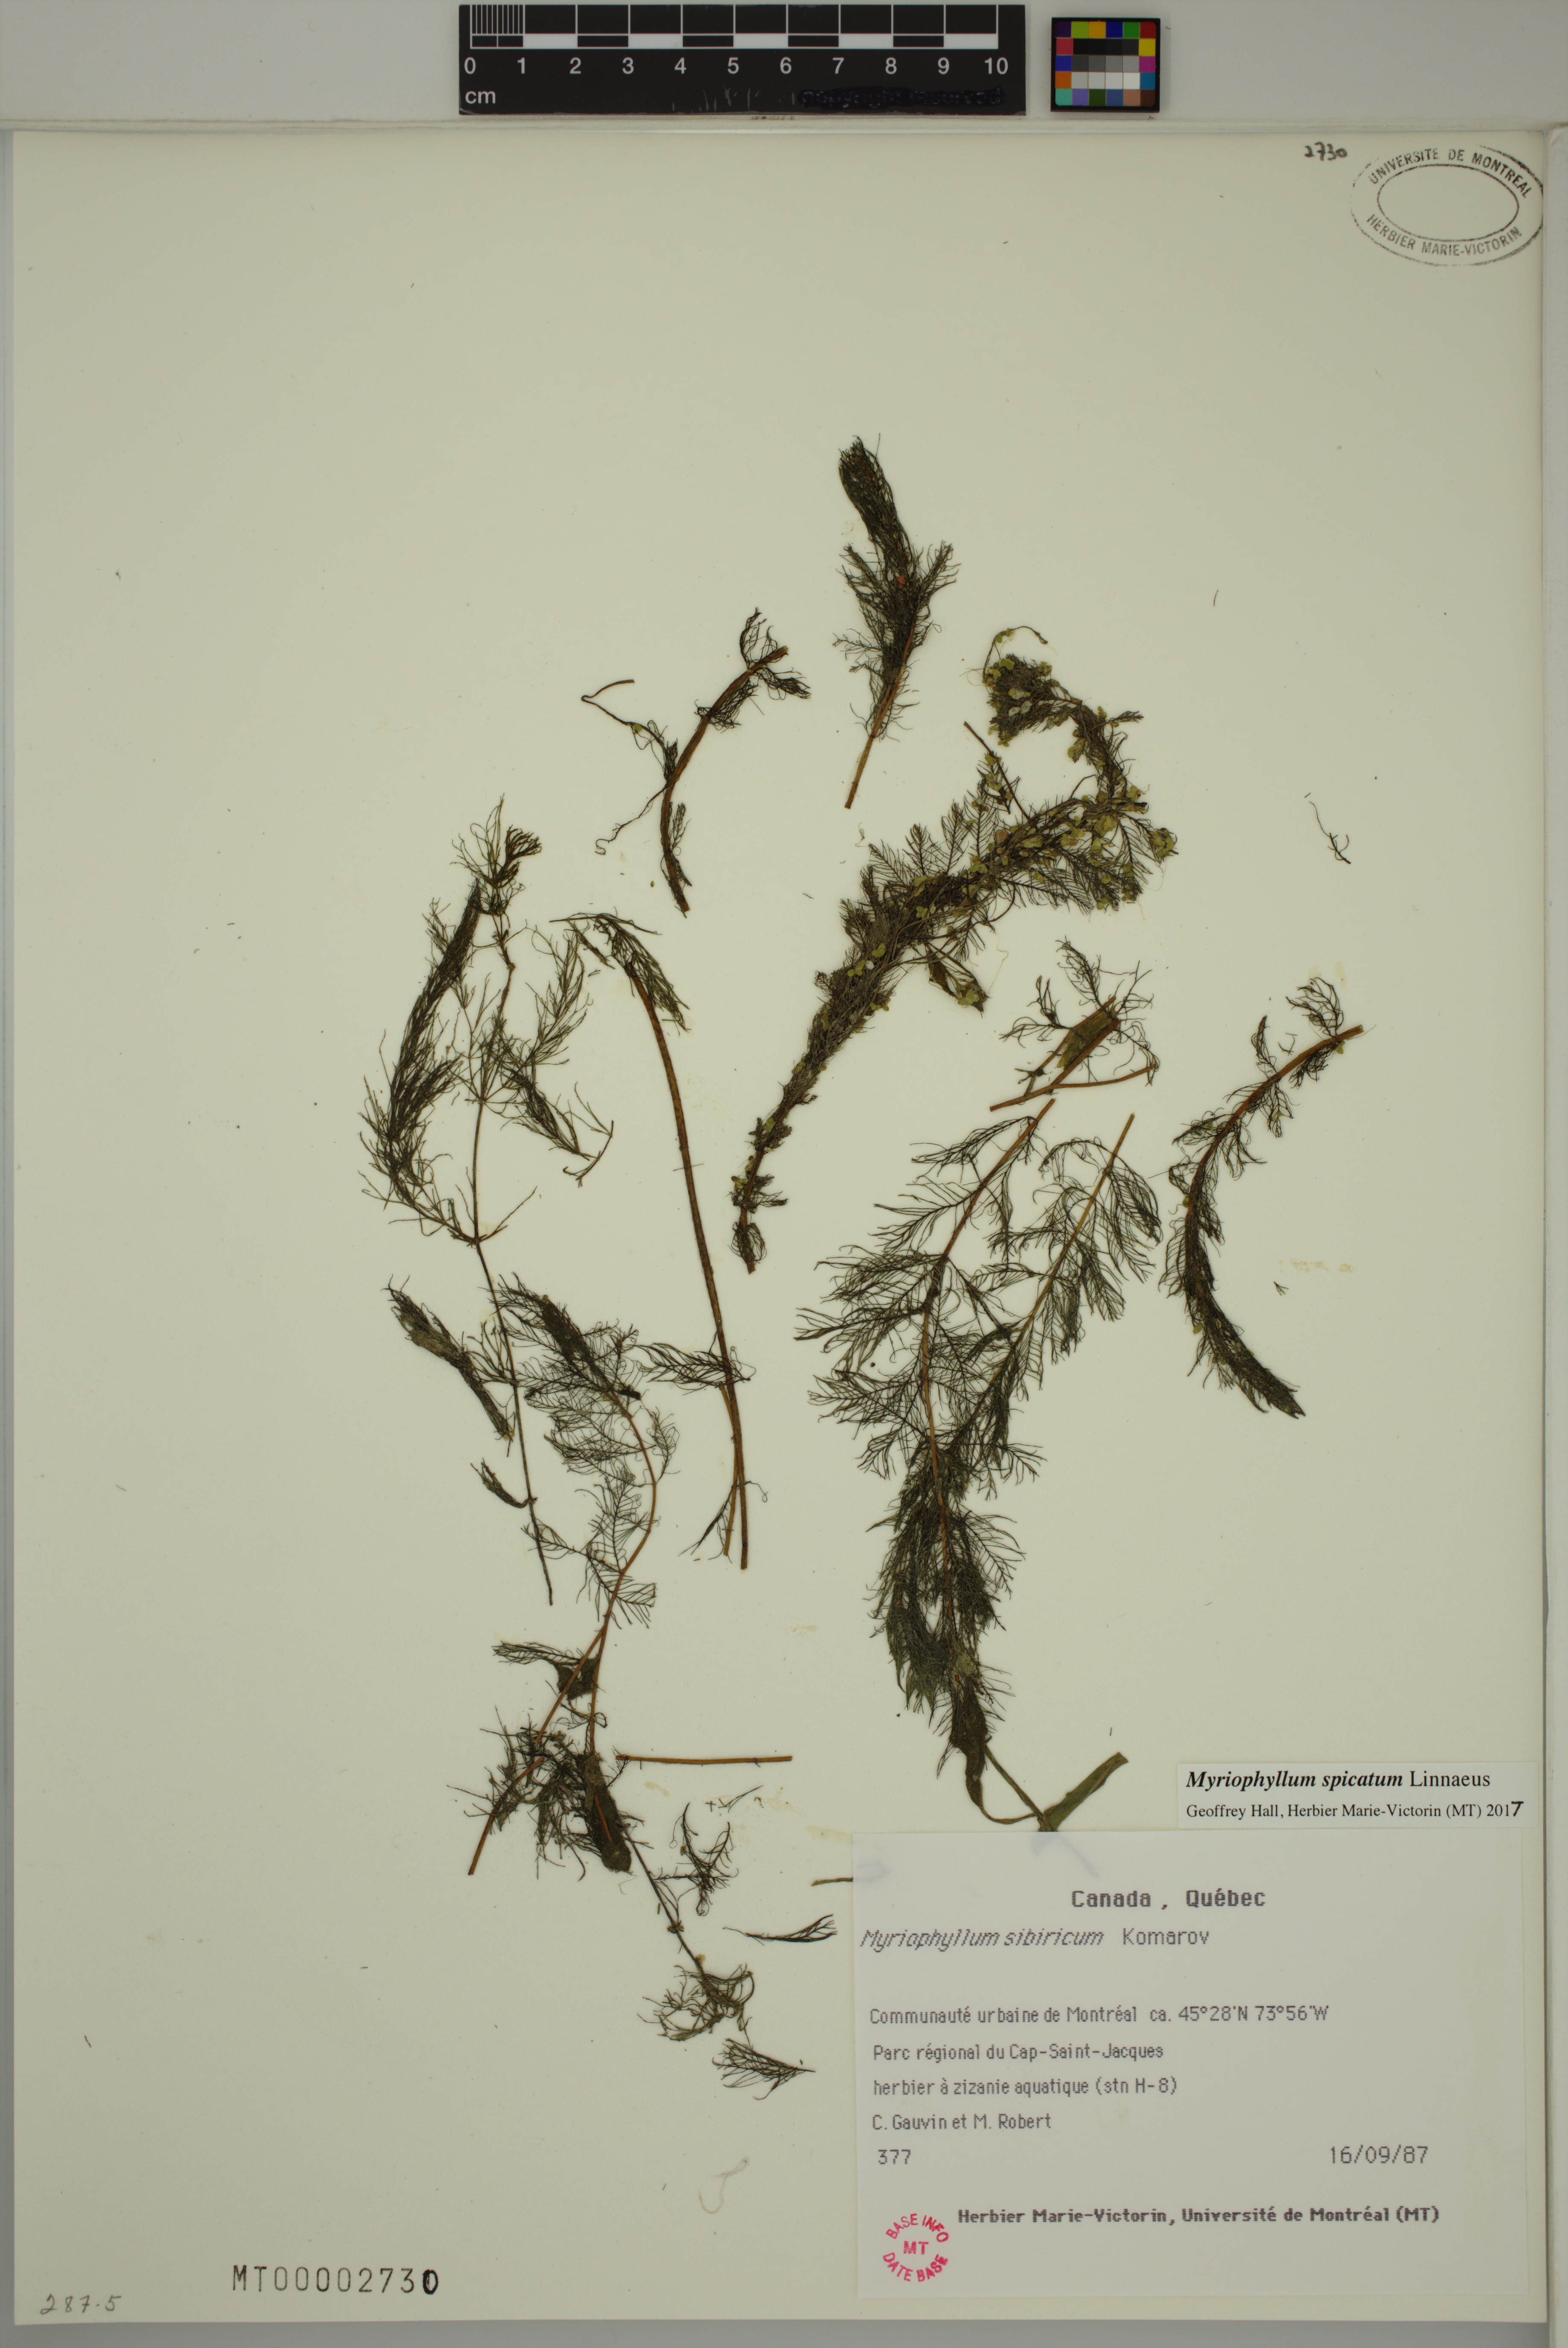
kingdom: Plantae
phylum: Tracheophyta
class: Magnoliopsida
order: Saxifragales
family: Haloragaceae
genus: Myriophyllum
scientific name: Myriophyllum spicatum
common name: Spiked water-milfoil
